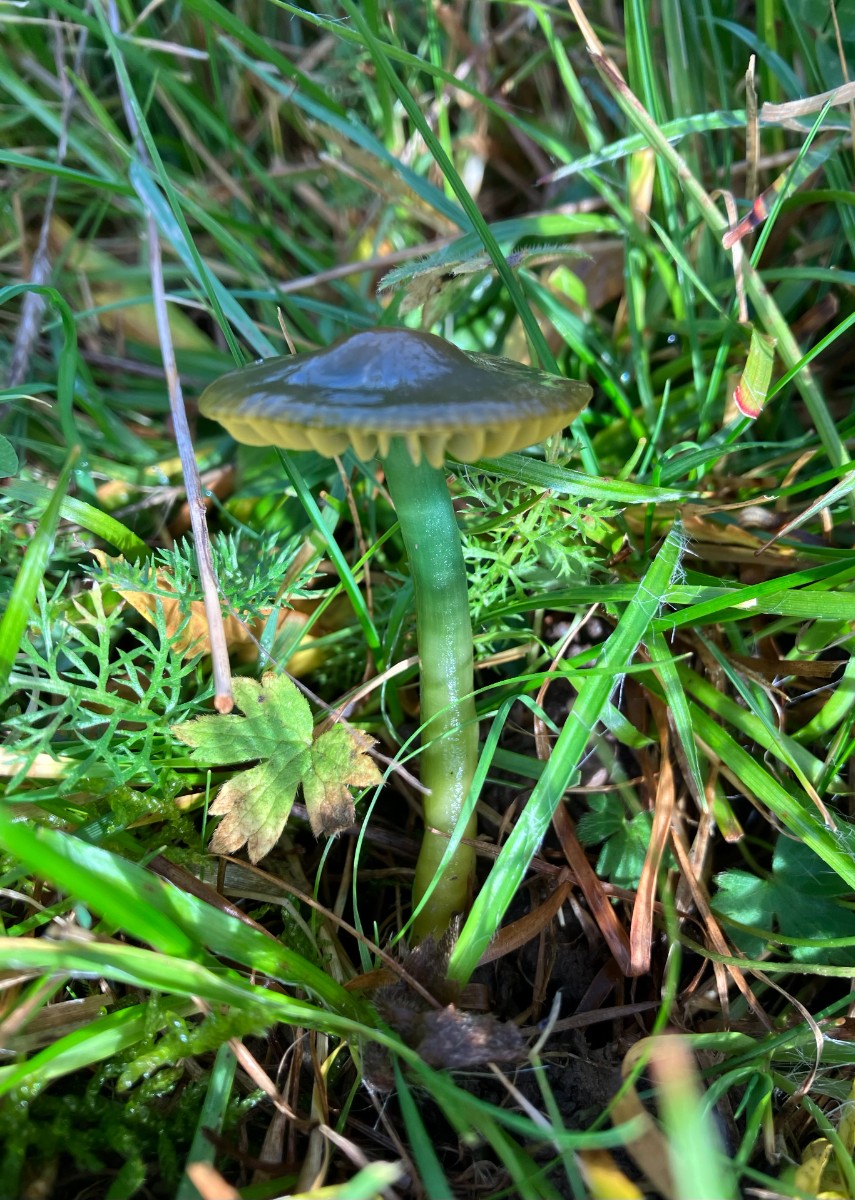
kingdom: Fungi
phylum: Basidiomycota
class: Agaricomycetes
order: Agaricales
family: Hygrophoraceae
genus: Gliophorus
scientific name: Gliophorus psittacinus
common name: papegøje-vokshat
